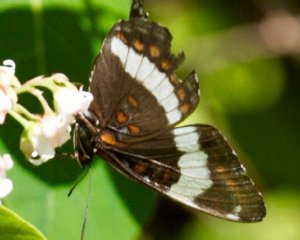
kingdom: Animalia
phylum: Arthropoda
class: Insecta
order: Lepidoptera
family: Nymphalidae
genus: Limenitis
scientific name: Limenitis arthemis
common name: Red-spotted Admiral
